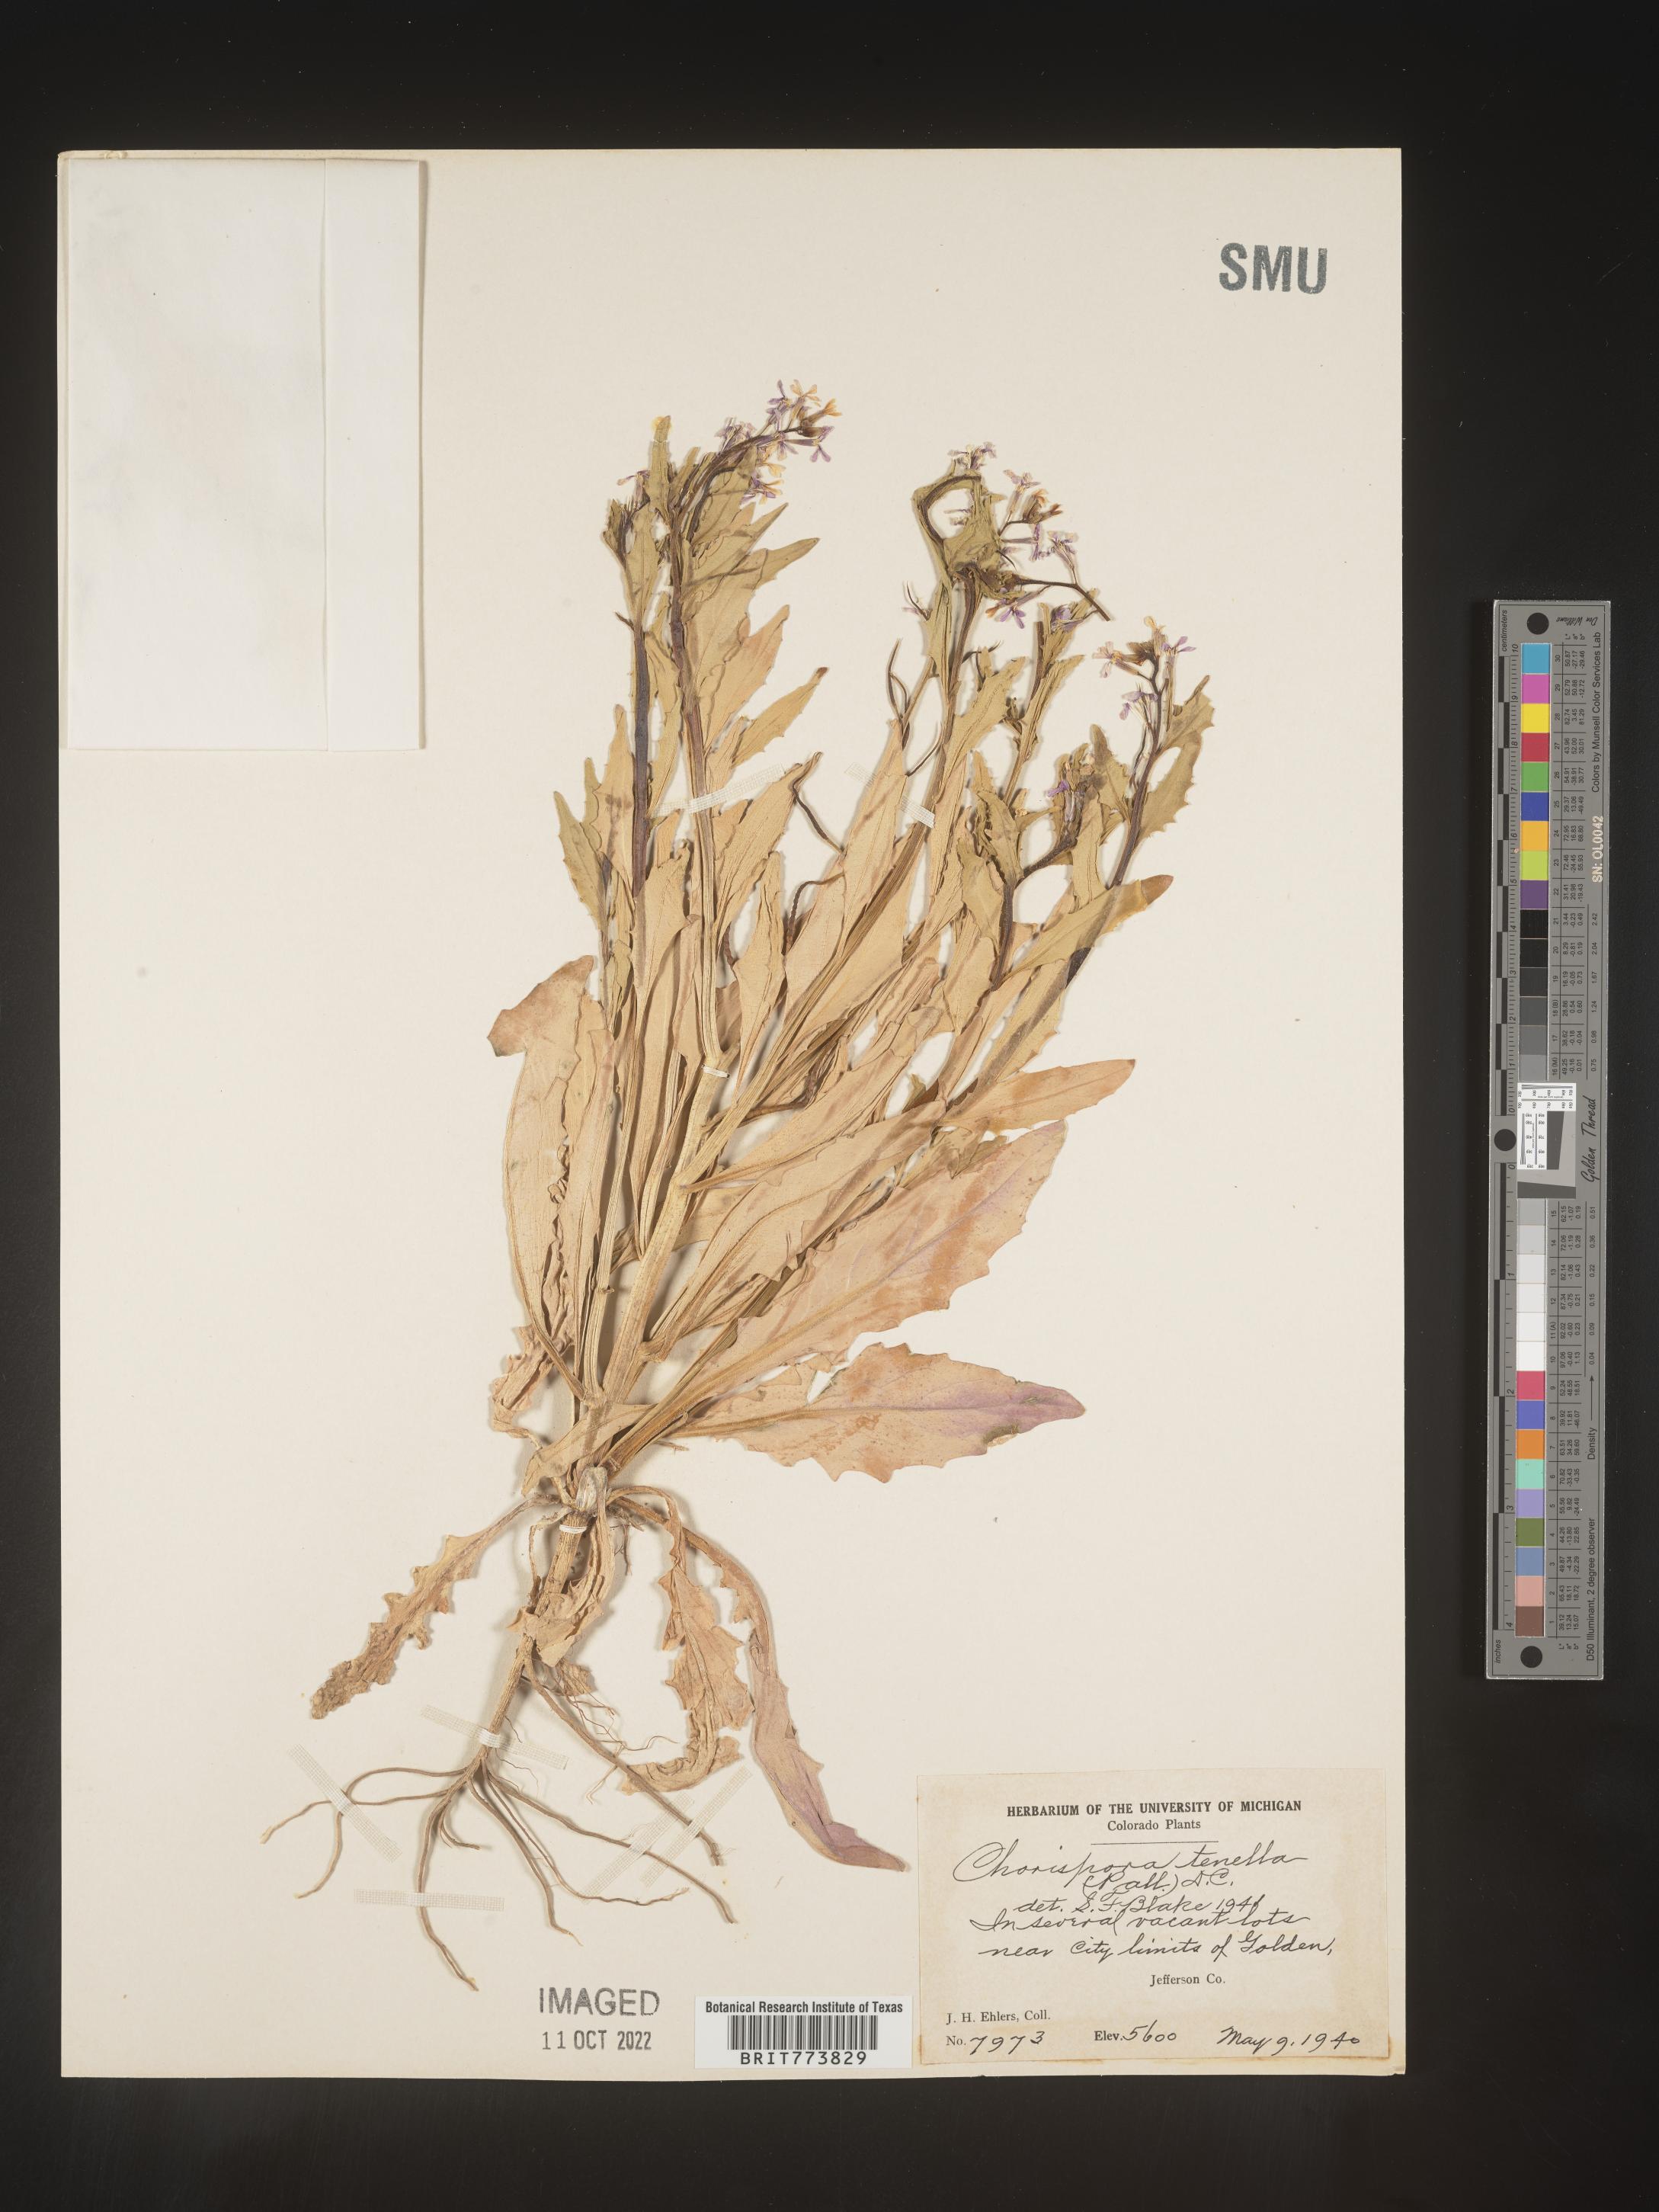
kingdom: Plantae
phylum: Tracheophyta
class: Magnoliopsida
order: Brassicales
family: Brassicaceae
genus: Chorispora
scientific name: Chorispora tenella
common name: Crossflower
